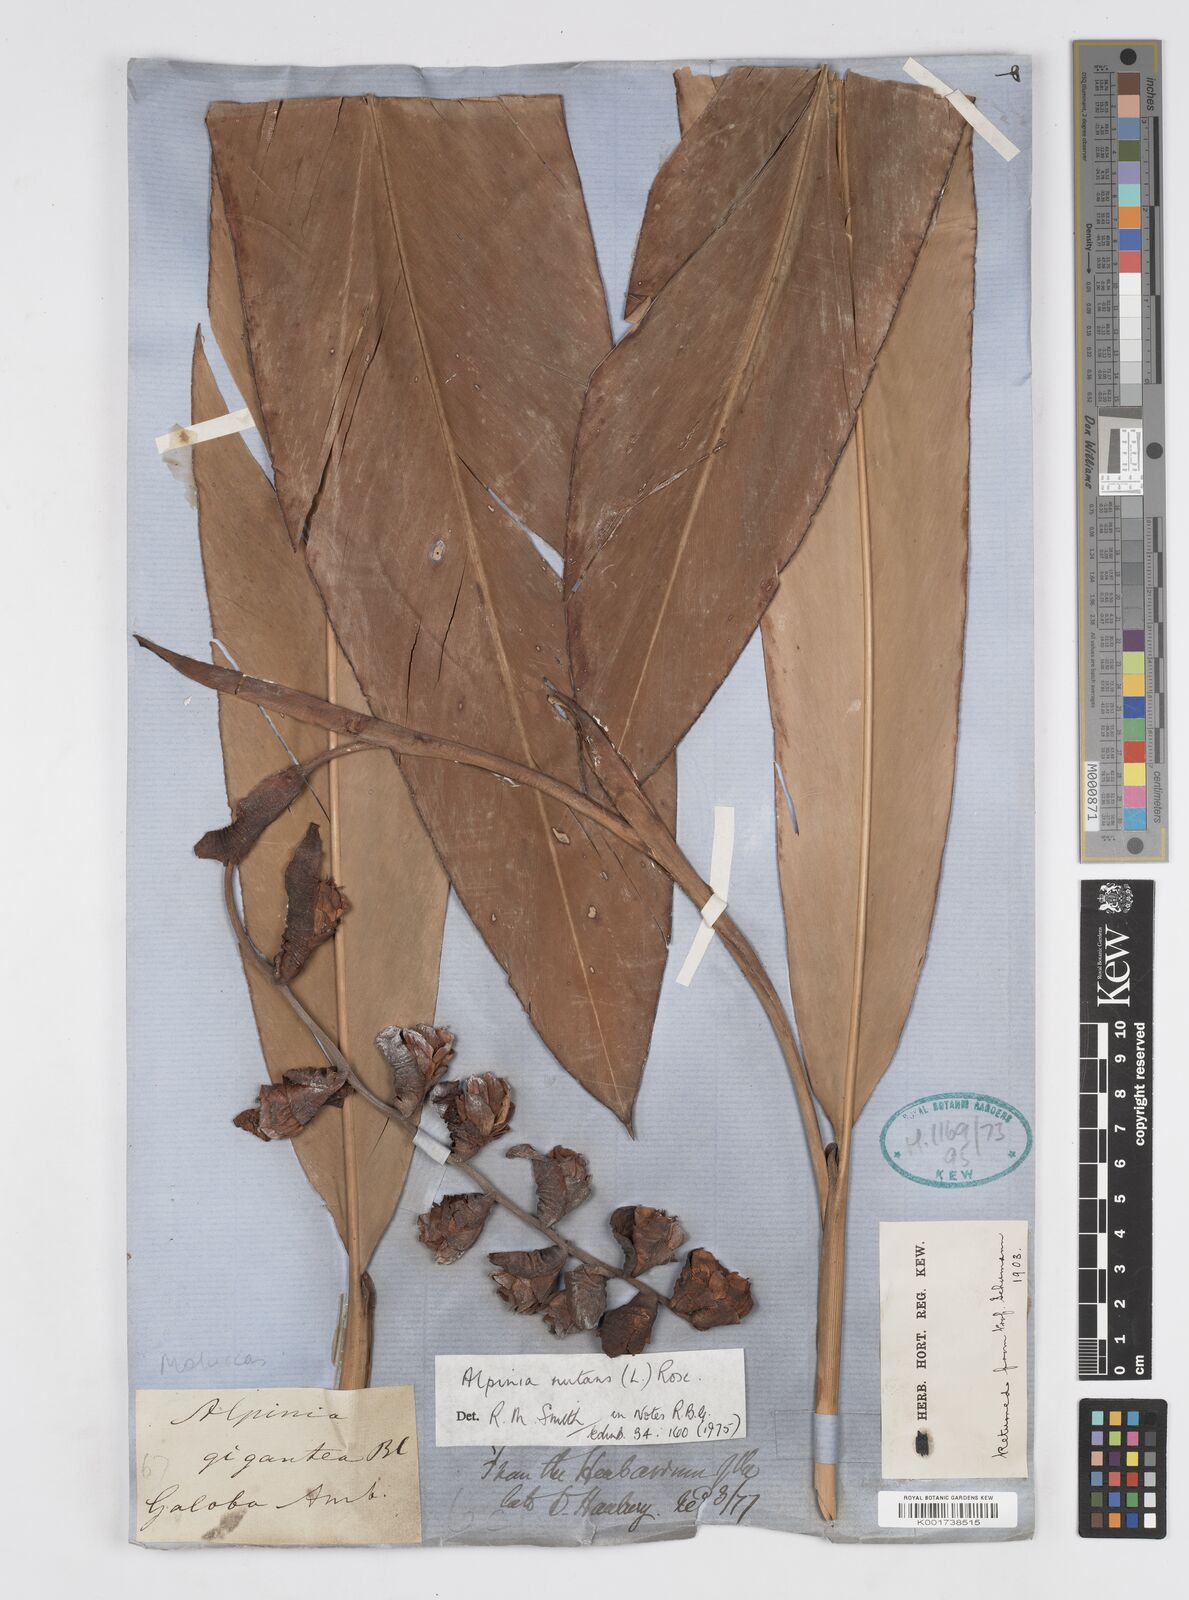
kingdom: Plantae
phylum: Tracheophyta
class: Liliopsida
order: Zingiberales
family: Zingiberaceae
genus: Alpinia
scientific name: Alpinia nutans
